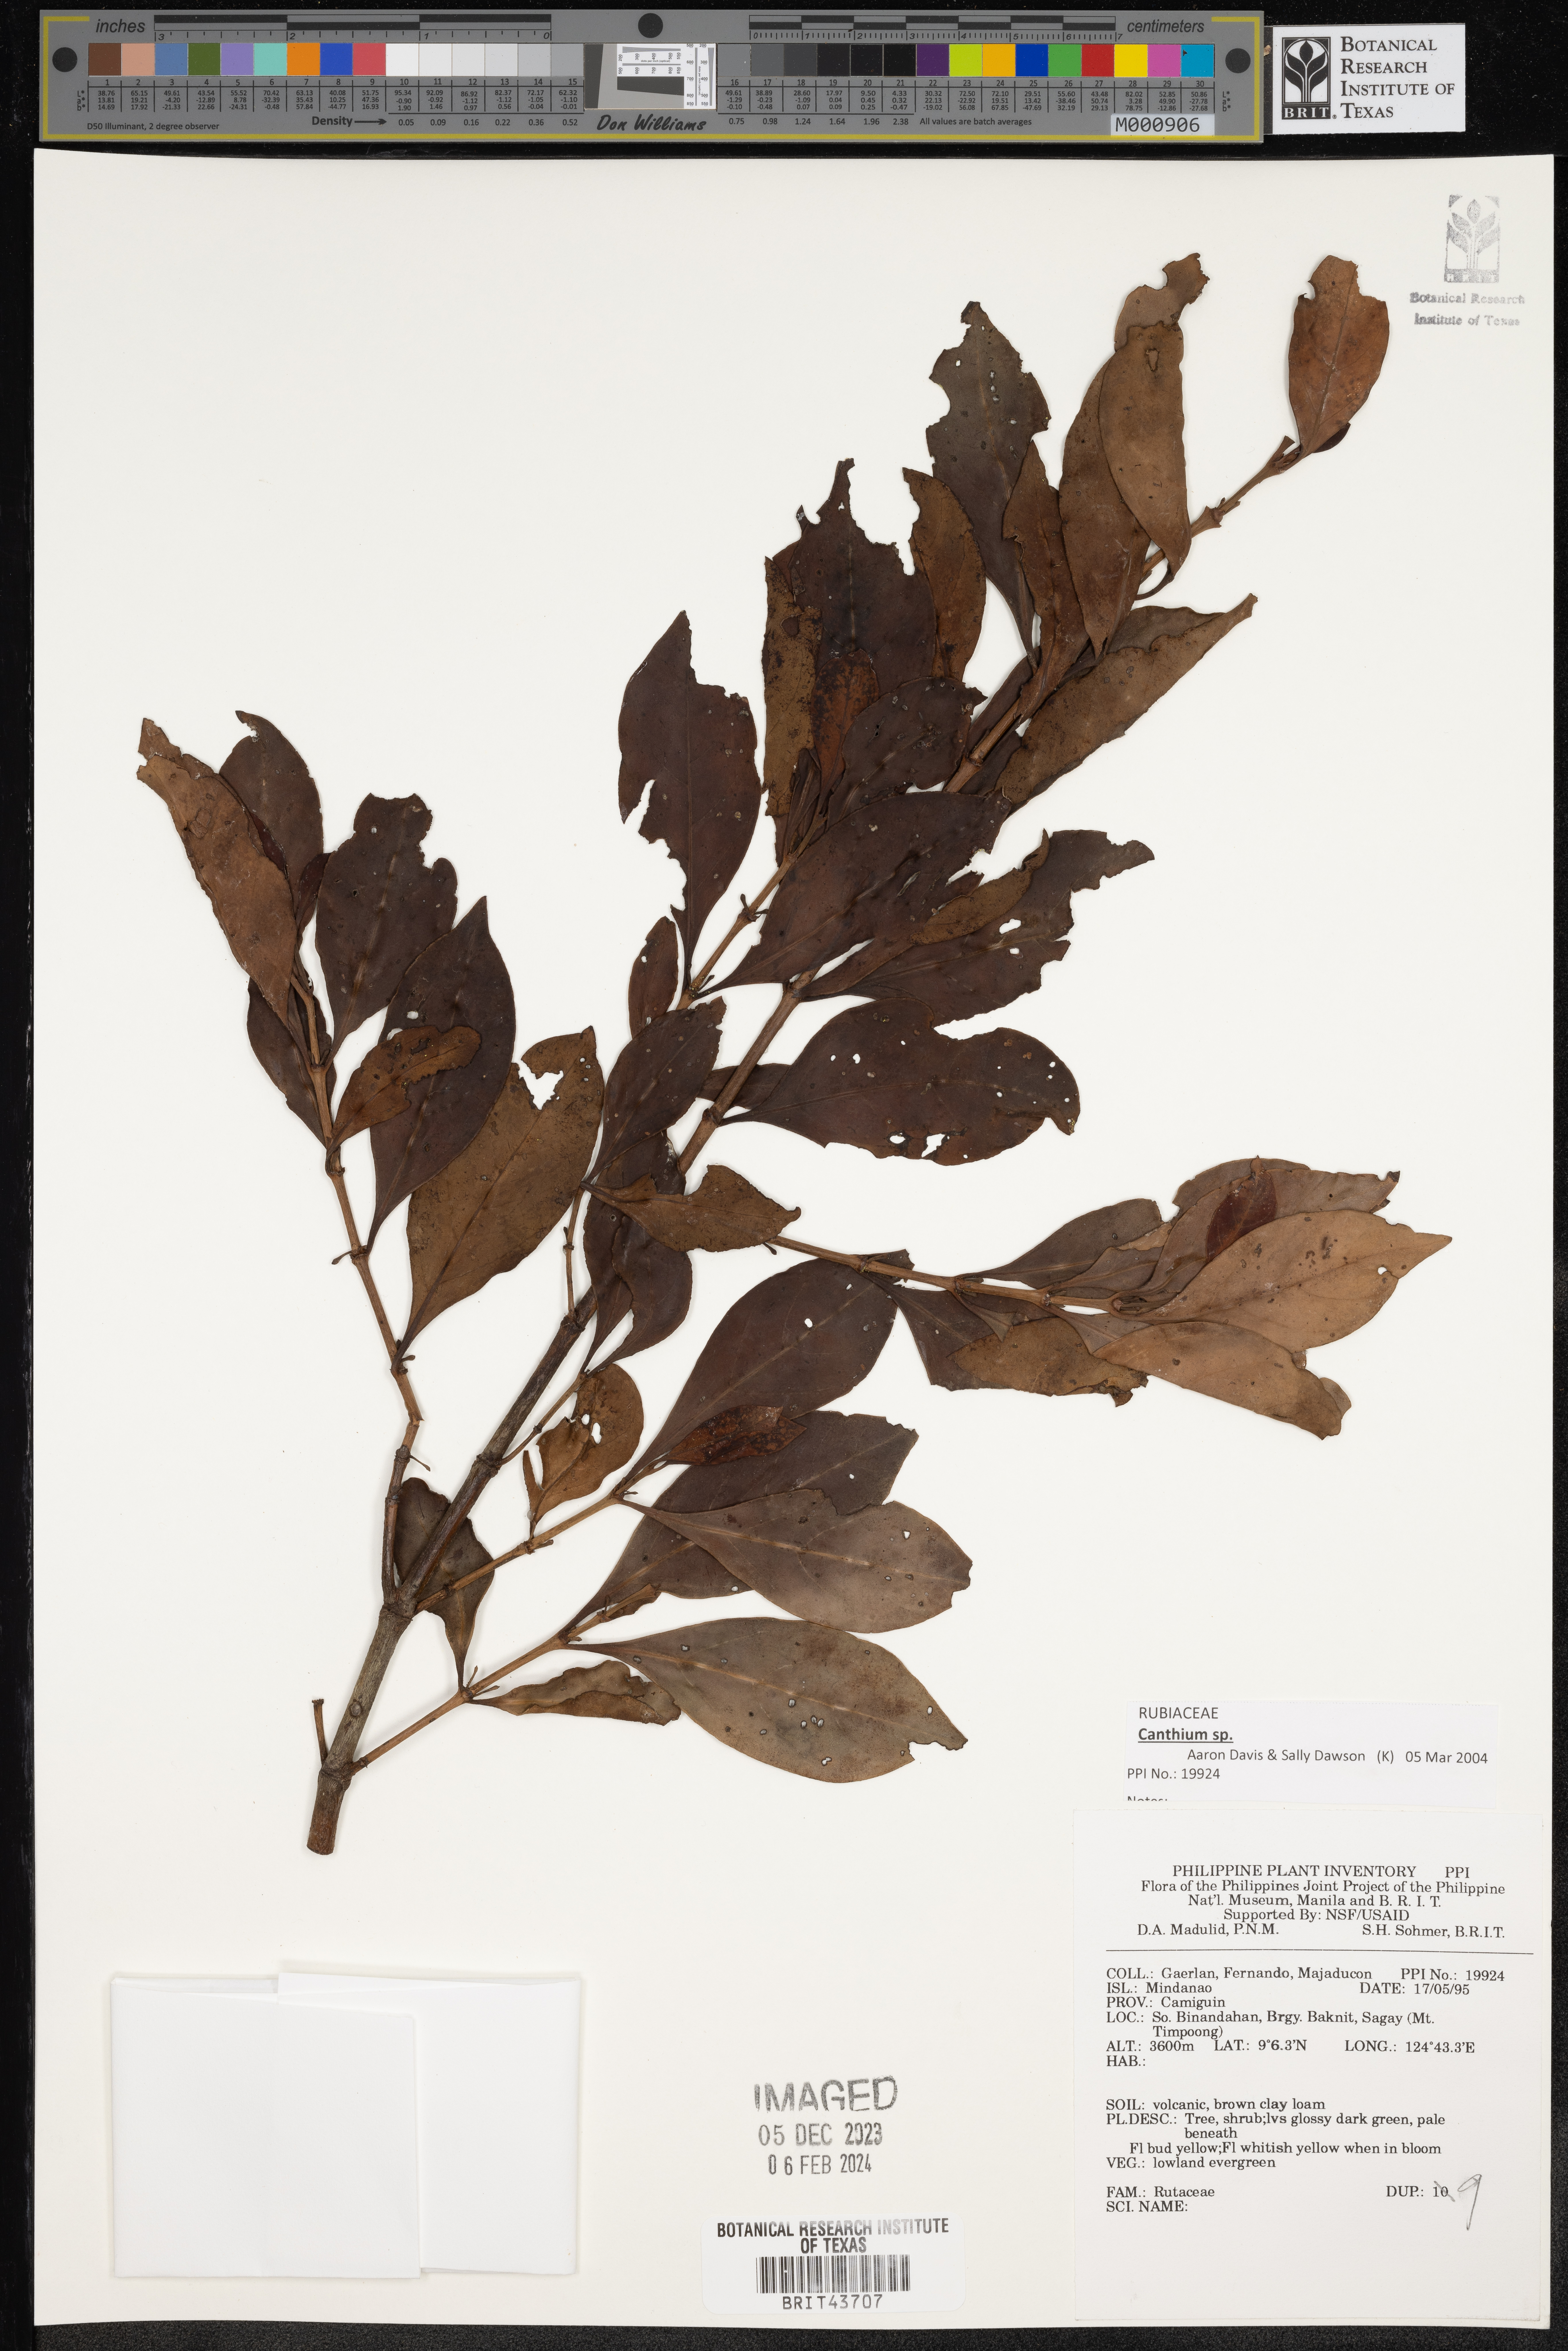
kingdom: Plantae
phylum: Tracheophyta
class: Magnoliopsida
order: Sapindales
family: Rutaceae
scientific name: Rutaceae
